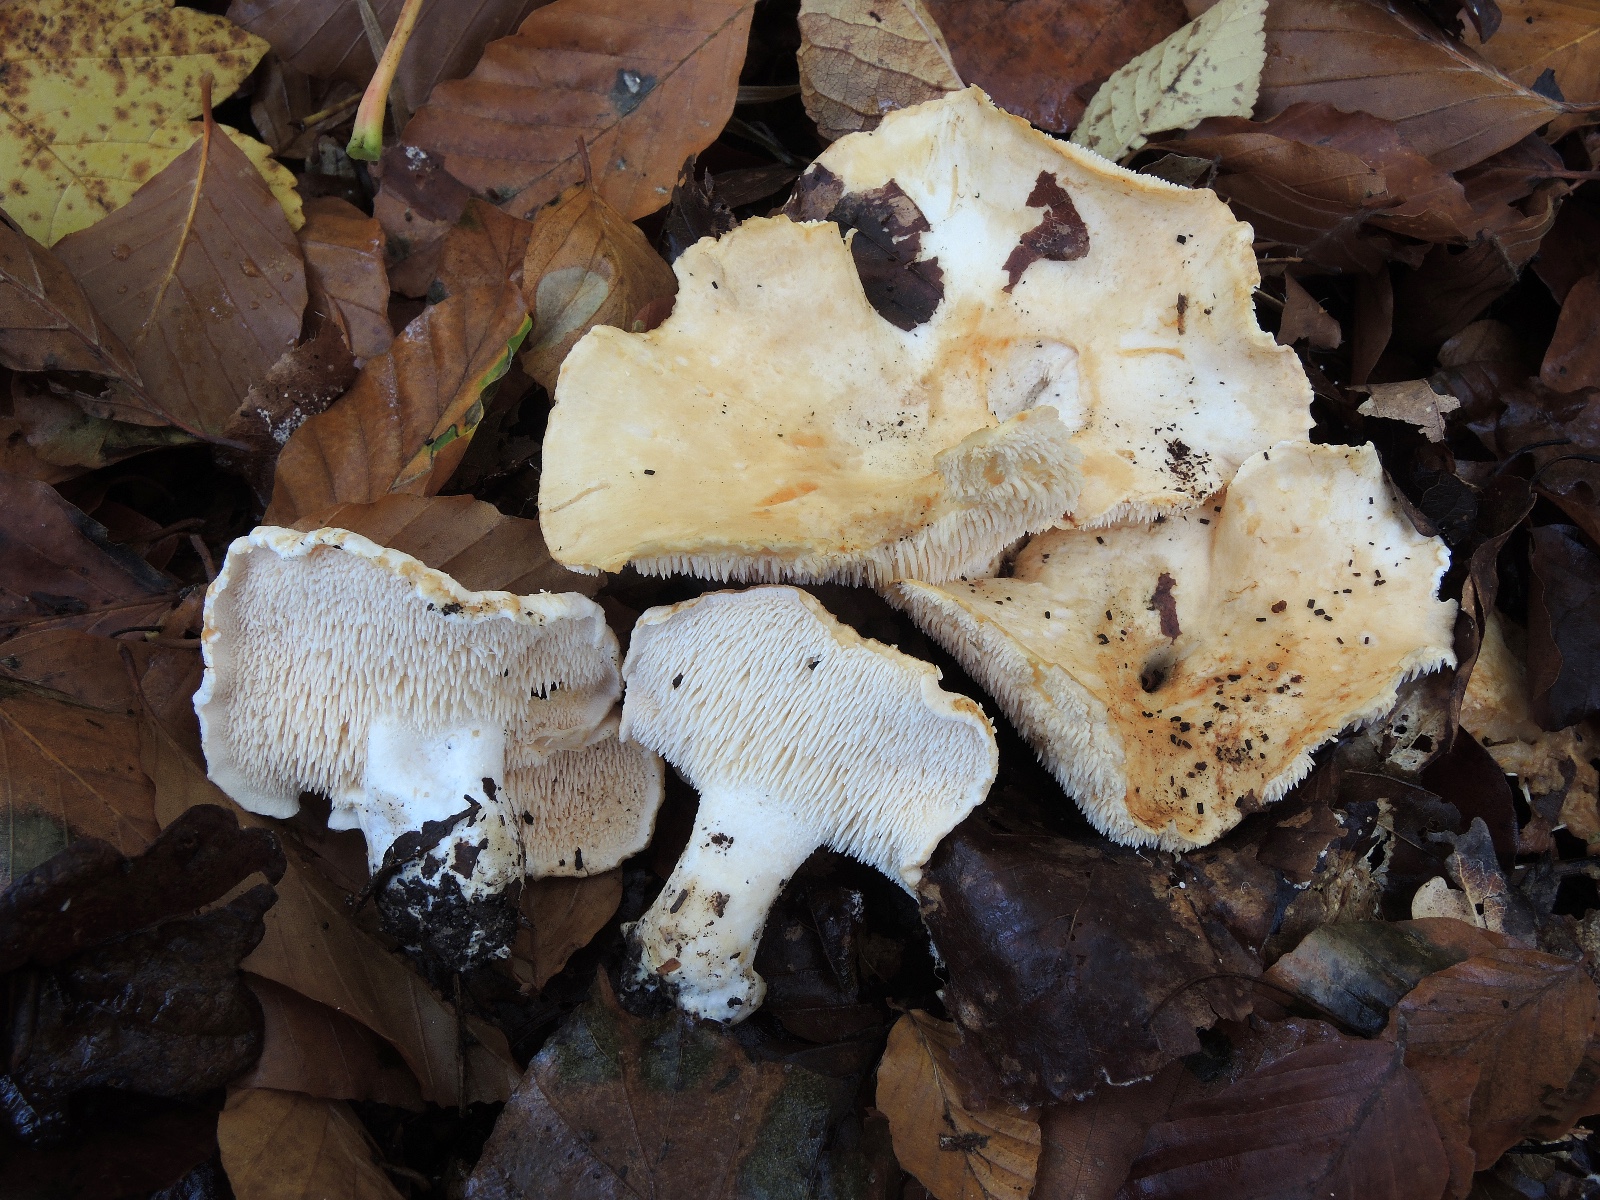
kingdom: Fungi
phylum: Basidiomycota
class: Agaricomycetes
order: Cantharellales
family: Hydnaceae
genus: Hydnum
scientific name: Hydnum repandum
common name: almindelig pigsvamp
